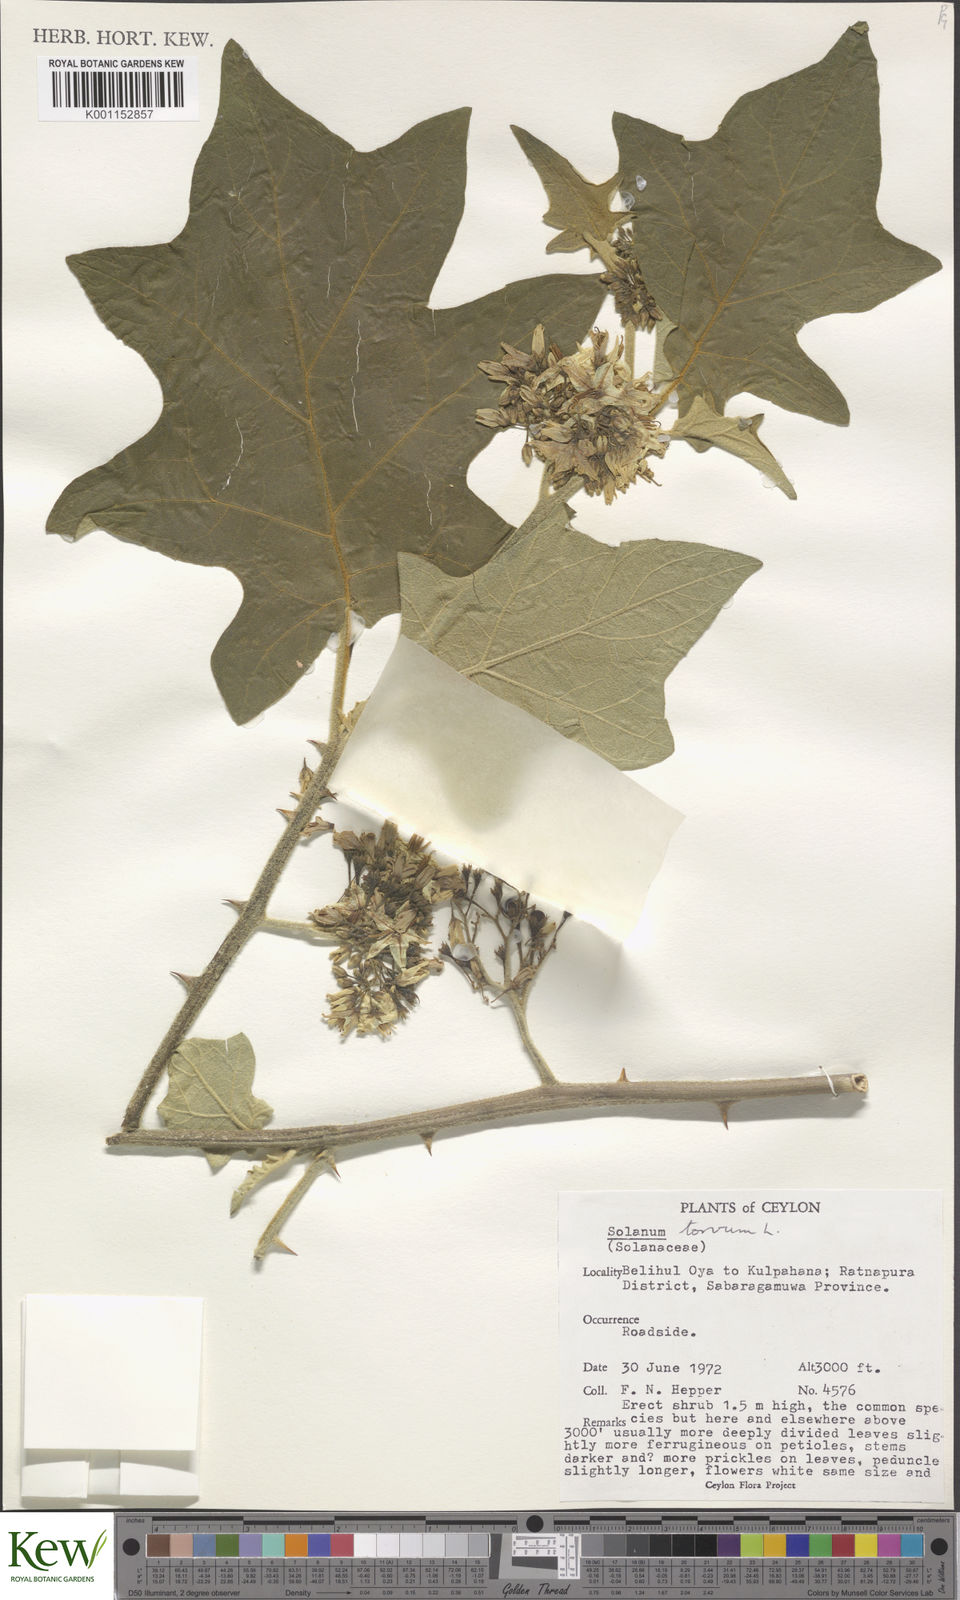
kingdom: Plantae
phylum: Tracheophyta
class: Magnoliopsida
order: Solanales
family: Solanaceae
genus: Solanum
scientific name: Solanum torvum
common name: Turkey berry
